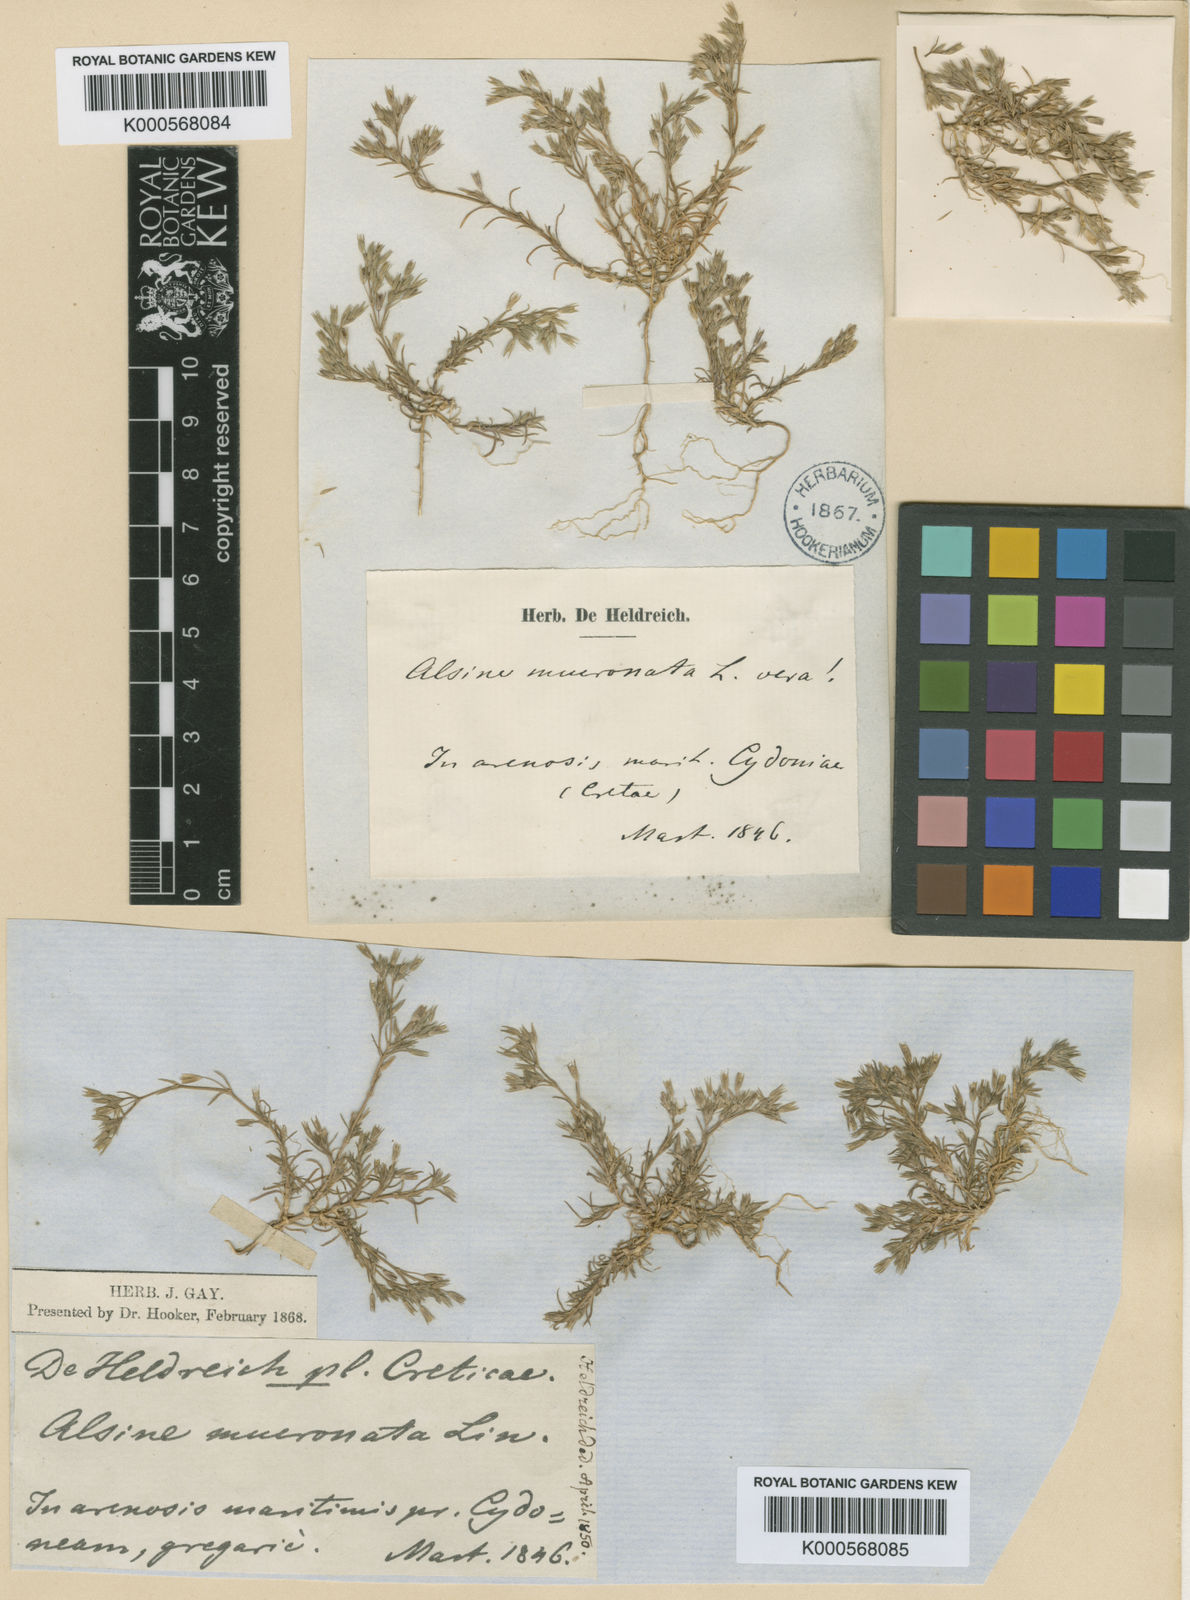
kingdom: Plantae
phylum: Tracheophyta
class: Magnoliopsida
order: Caryophyllales
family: Caryophyllaceae
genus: Minuartia
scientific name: Minuartia
